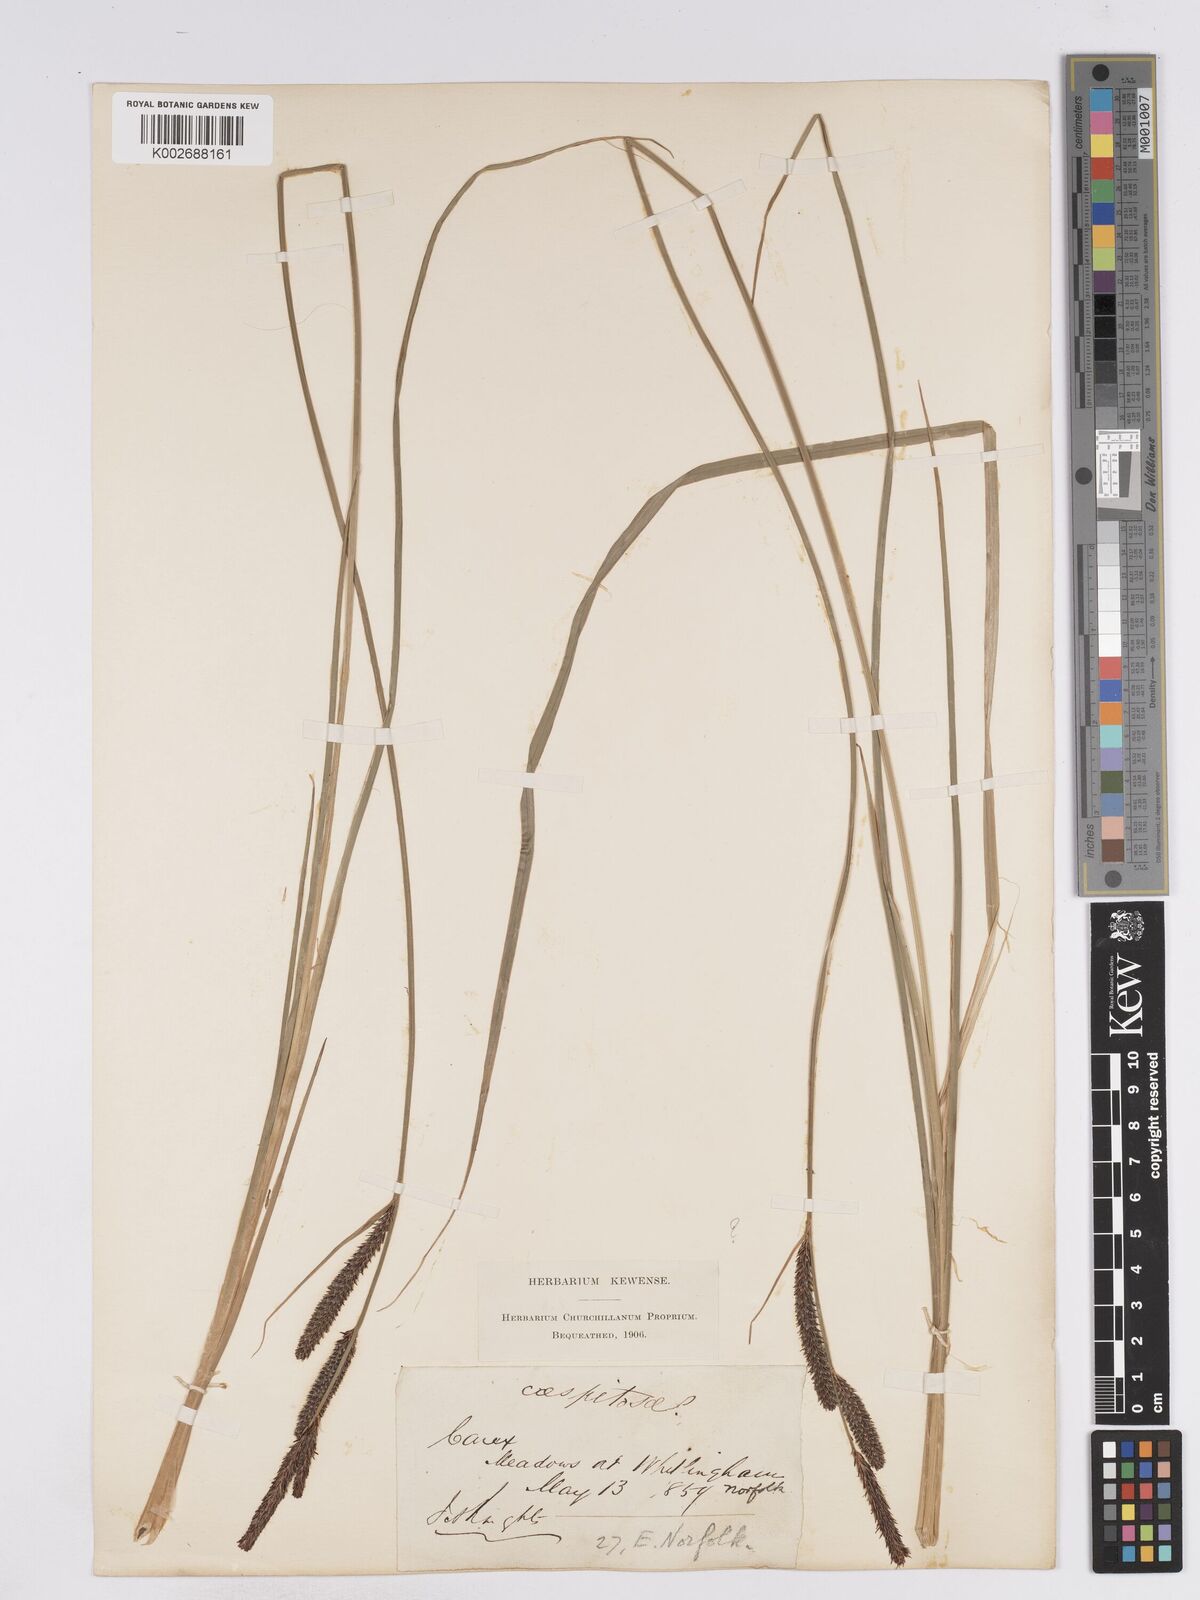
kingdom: Plantae
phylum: Tracheophyta
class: Liliopsida
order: Poales
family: Cyperaceae
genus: Carex
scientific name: Carex elata
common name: Tufted sedge
